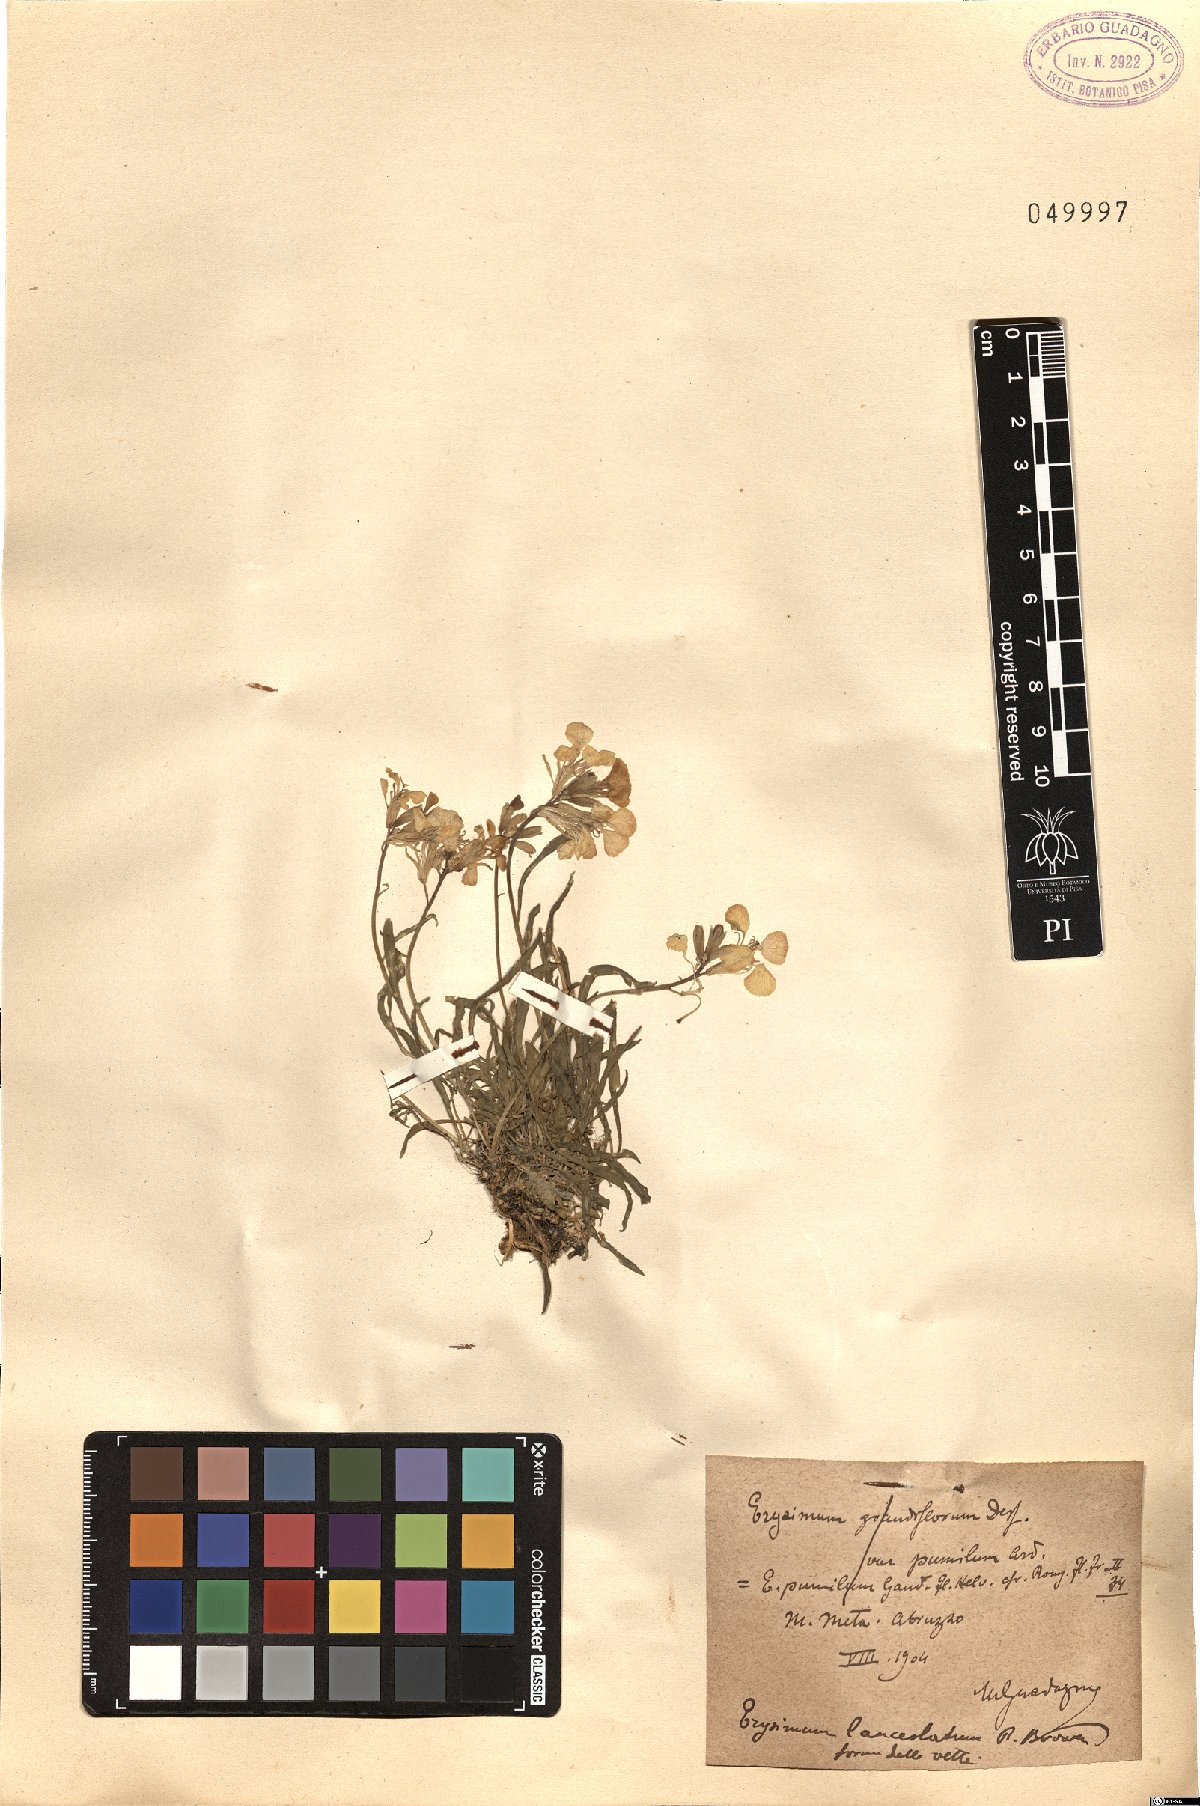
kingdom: Plantae
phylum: Tracheophyta
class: Magnoliopsida
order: Brassicales
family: Brassicaceae
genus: Erysimum
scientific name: Erysimum nevadense
